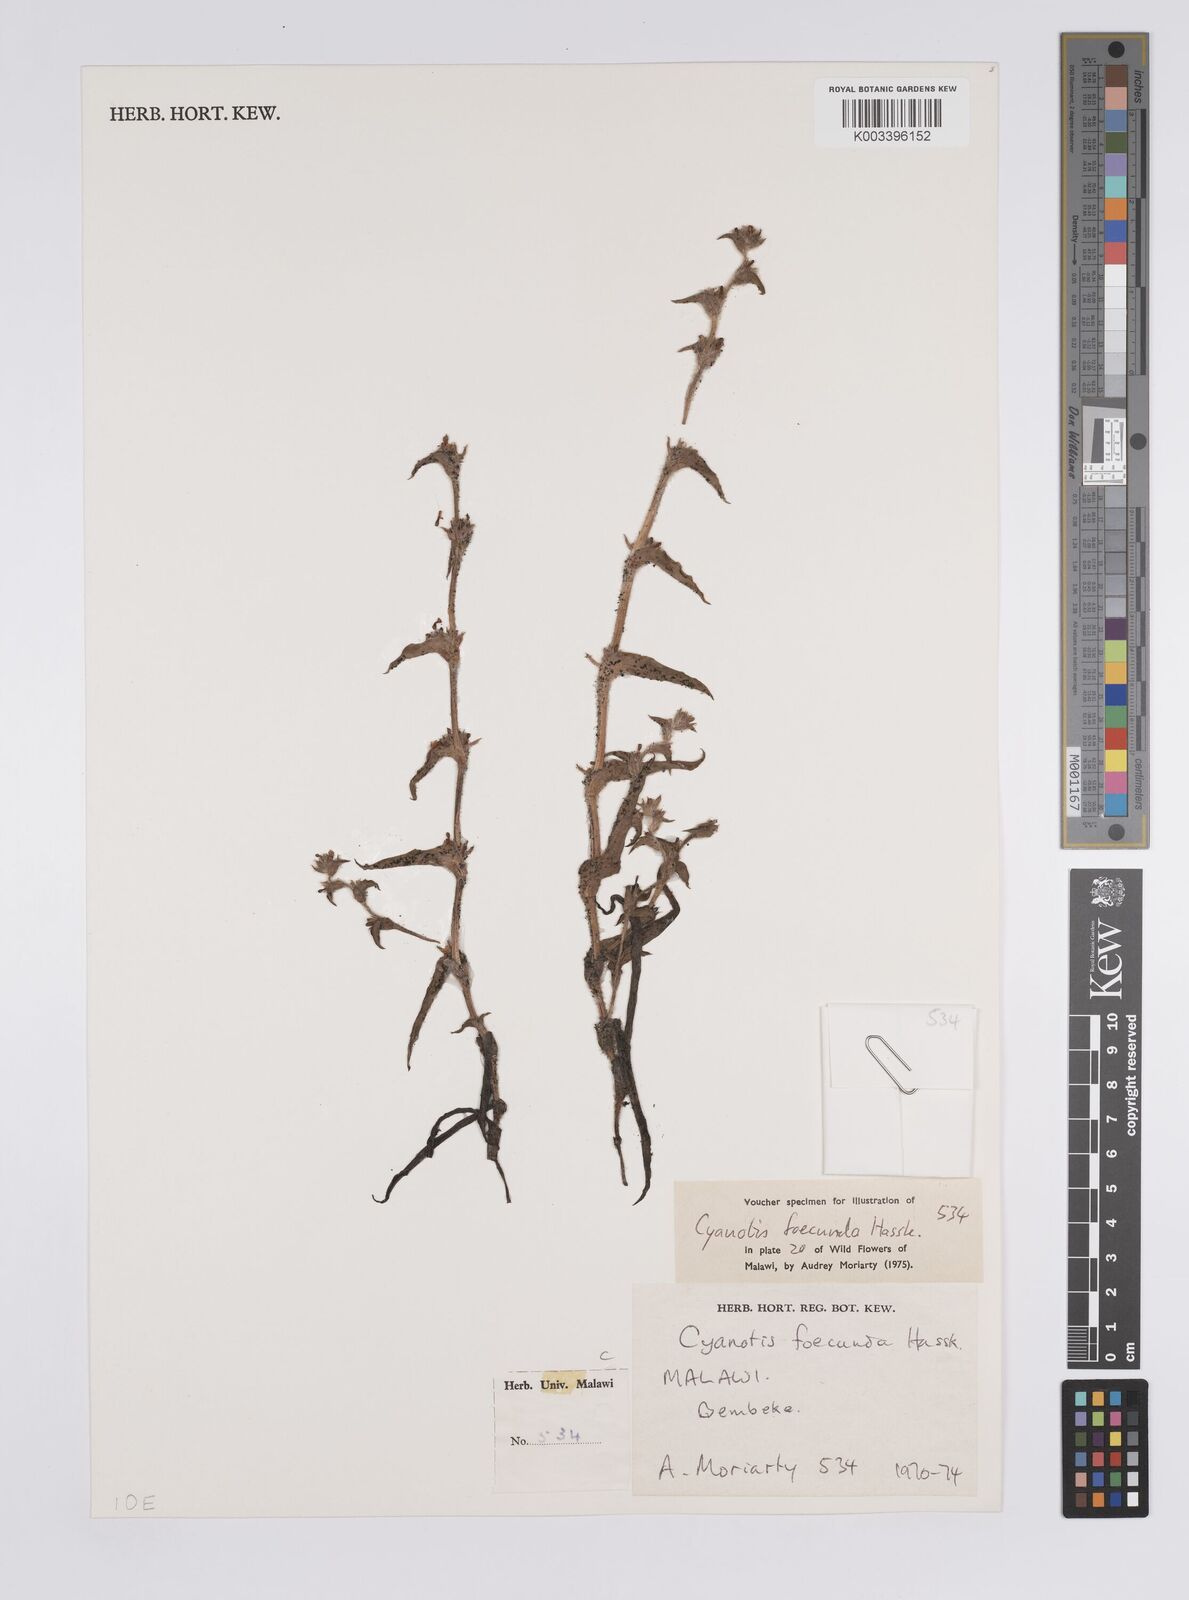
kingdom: Plantae
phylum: Tracheophyta
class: Liliopsida
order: Commelinales
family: Commelinaceae
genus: Cyanotis
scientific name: Cyanotis foecunda
